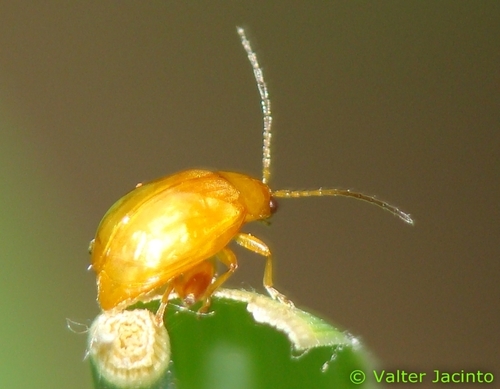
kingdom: Animalia
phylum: Arthropoda
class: Insecta
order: Coleoptera
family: Chrysomelidae
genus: Aphthona
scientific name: Aphthona
